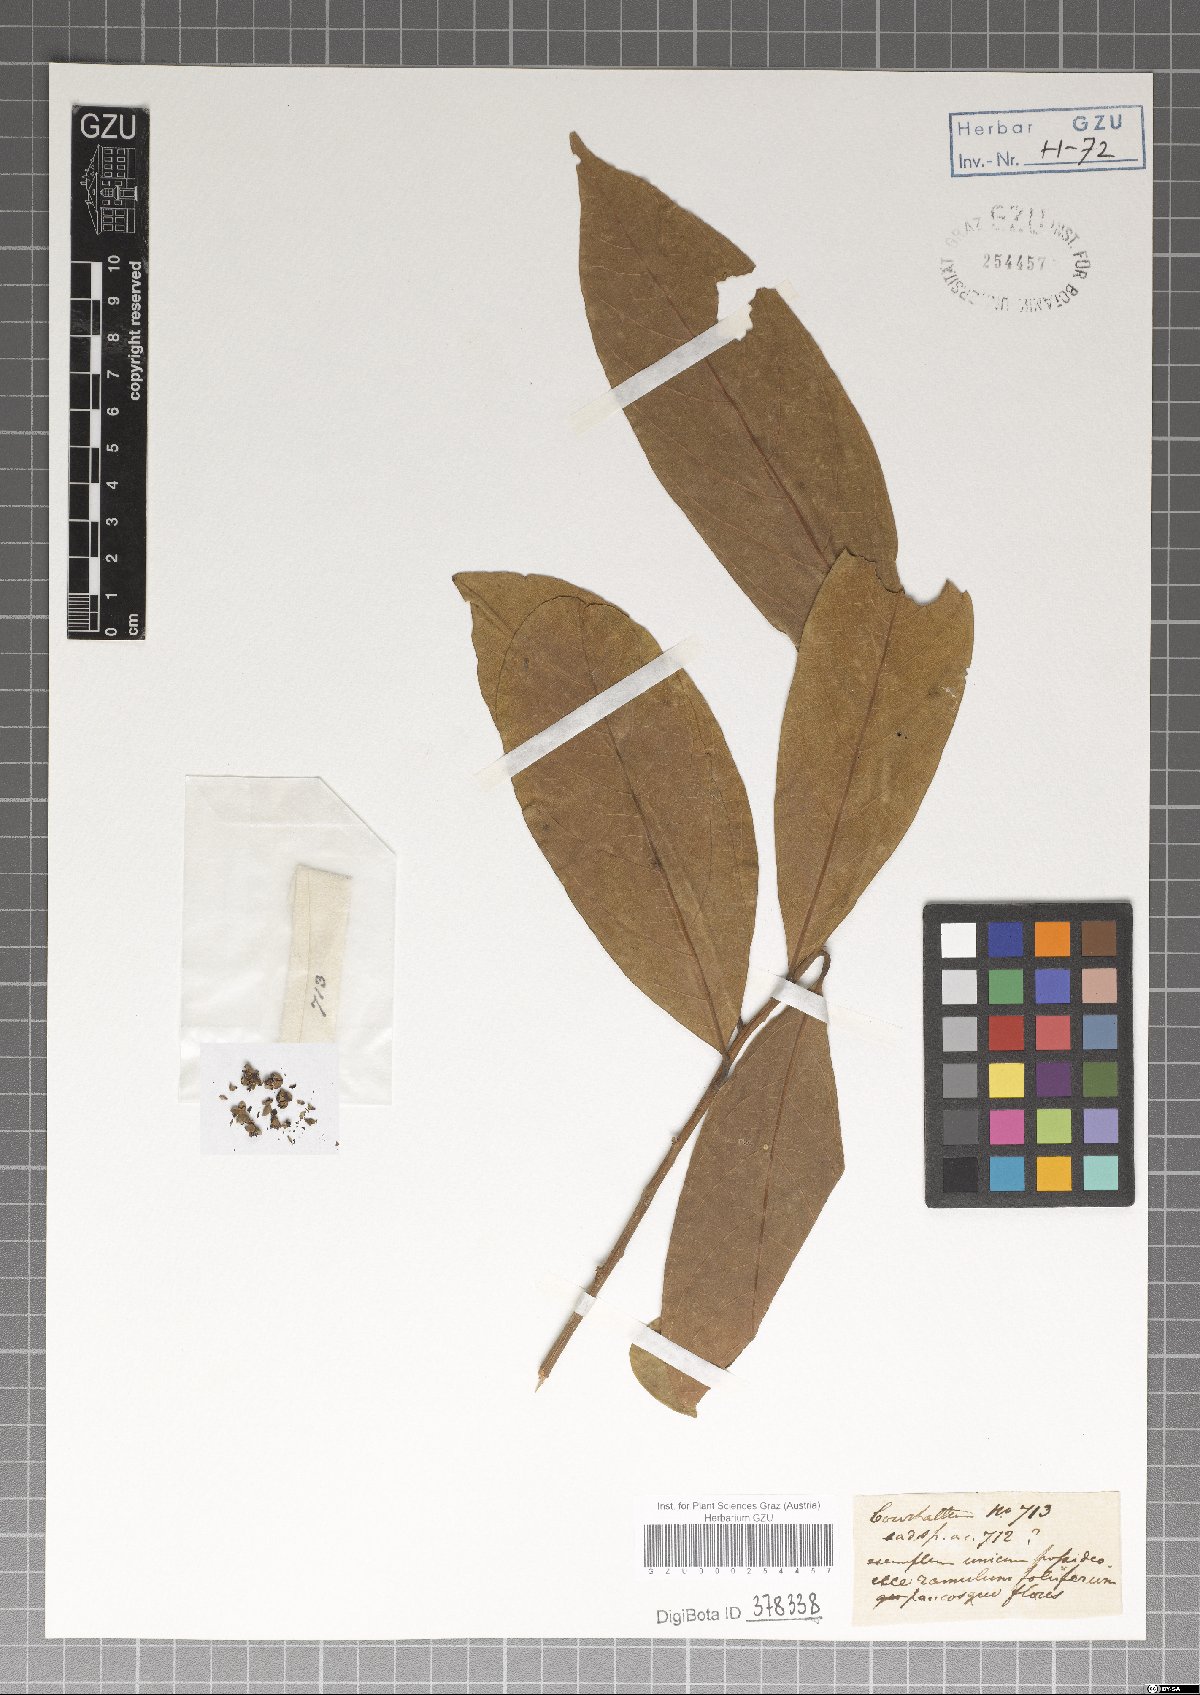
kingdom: Plantae
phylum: Tracheophyta
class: Magnoliopsida
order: Laurales
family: Lauraceae
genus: Litsea
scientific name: Litsea salicifolia
